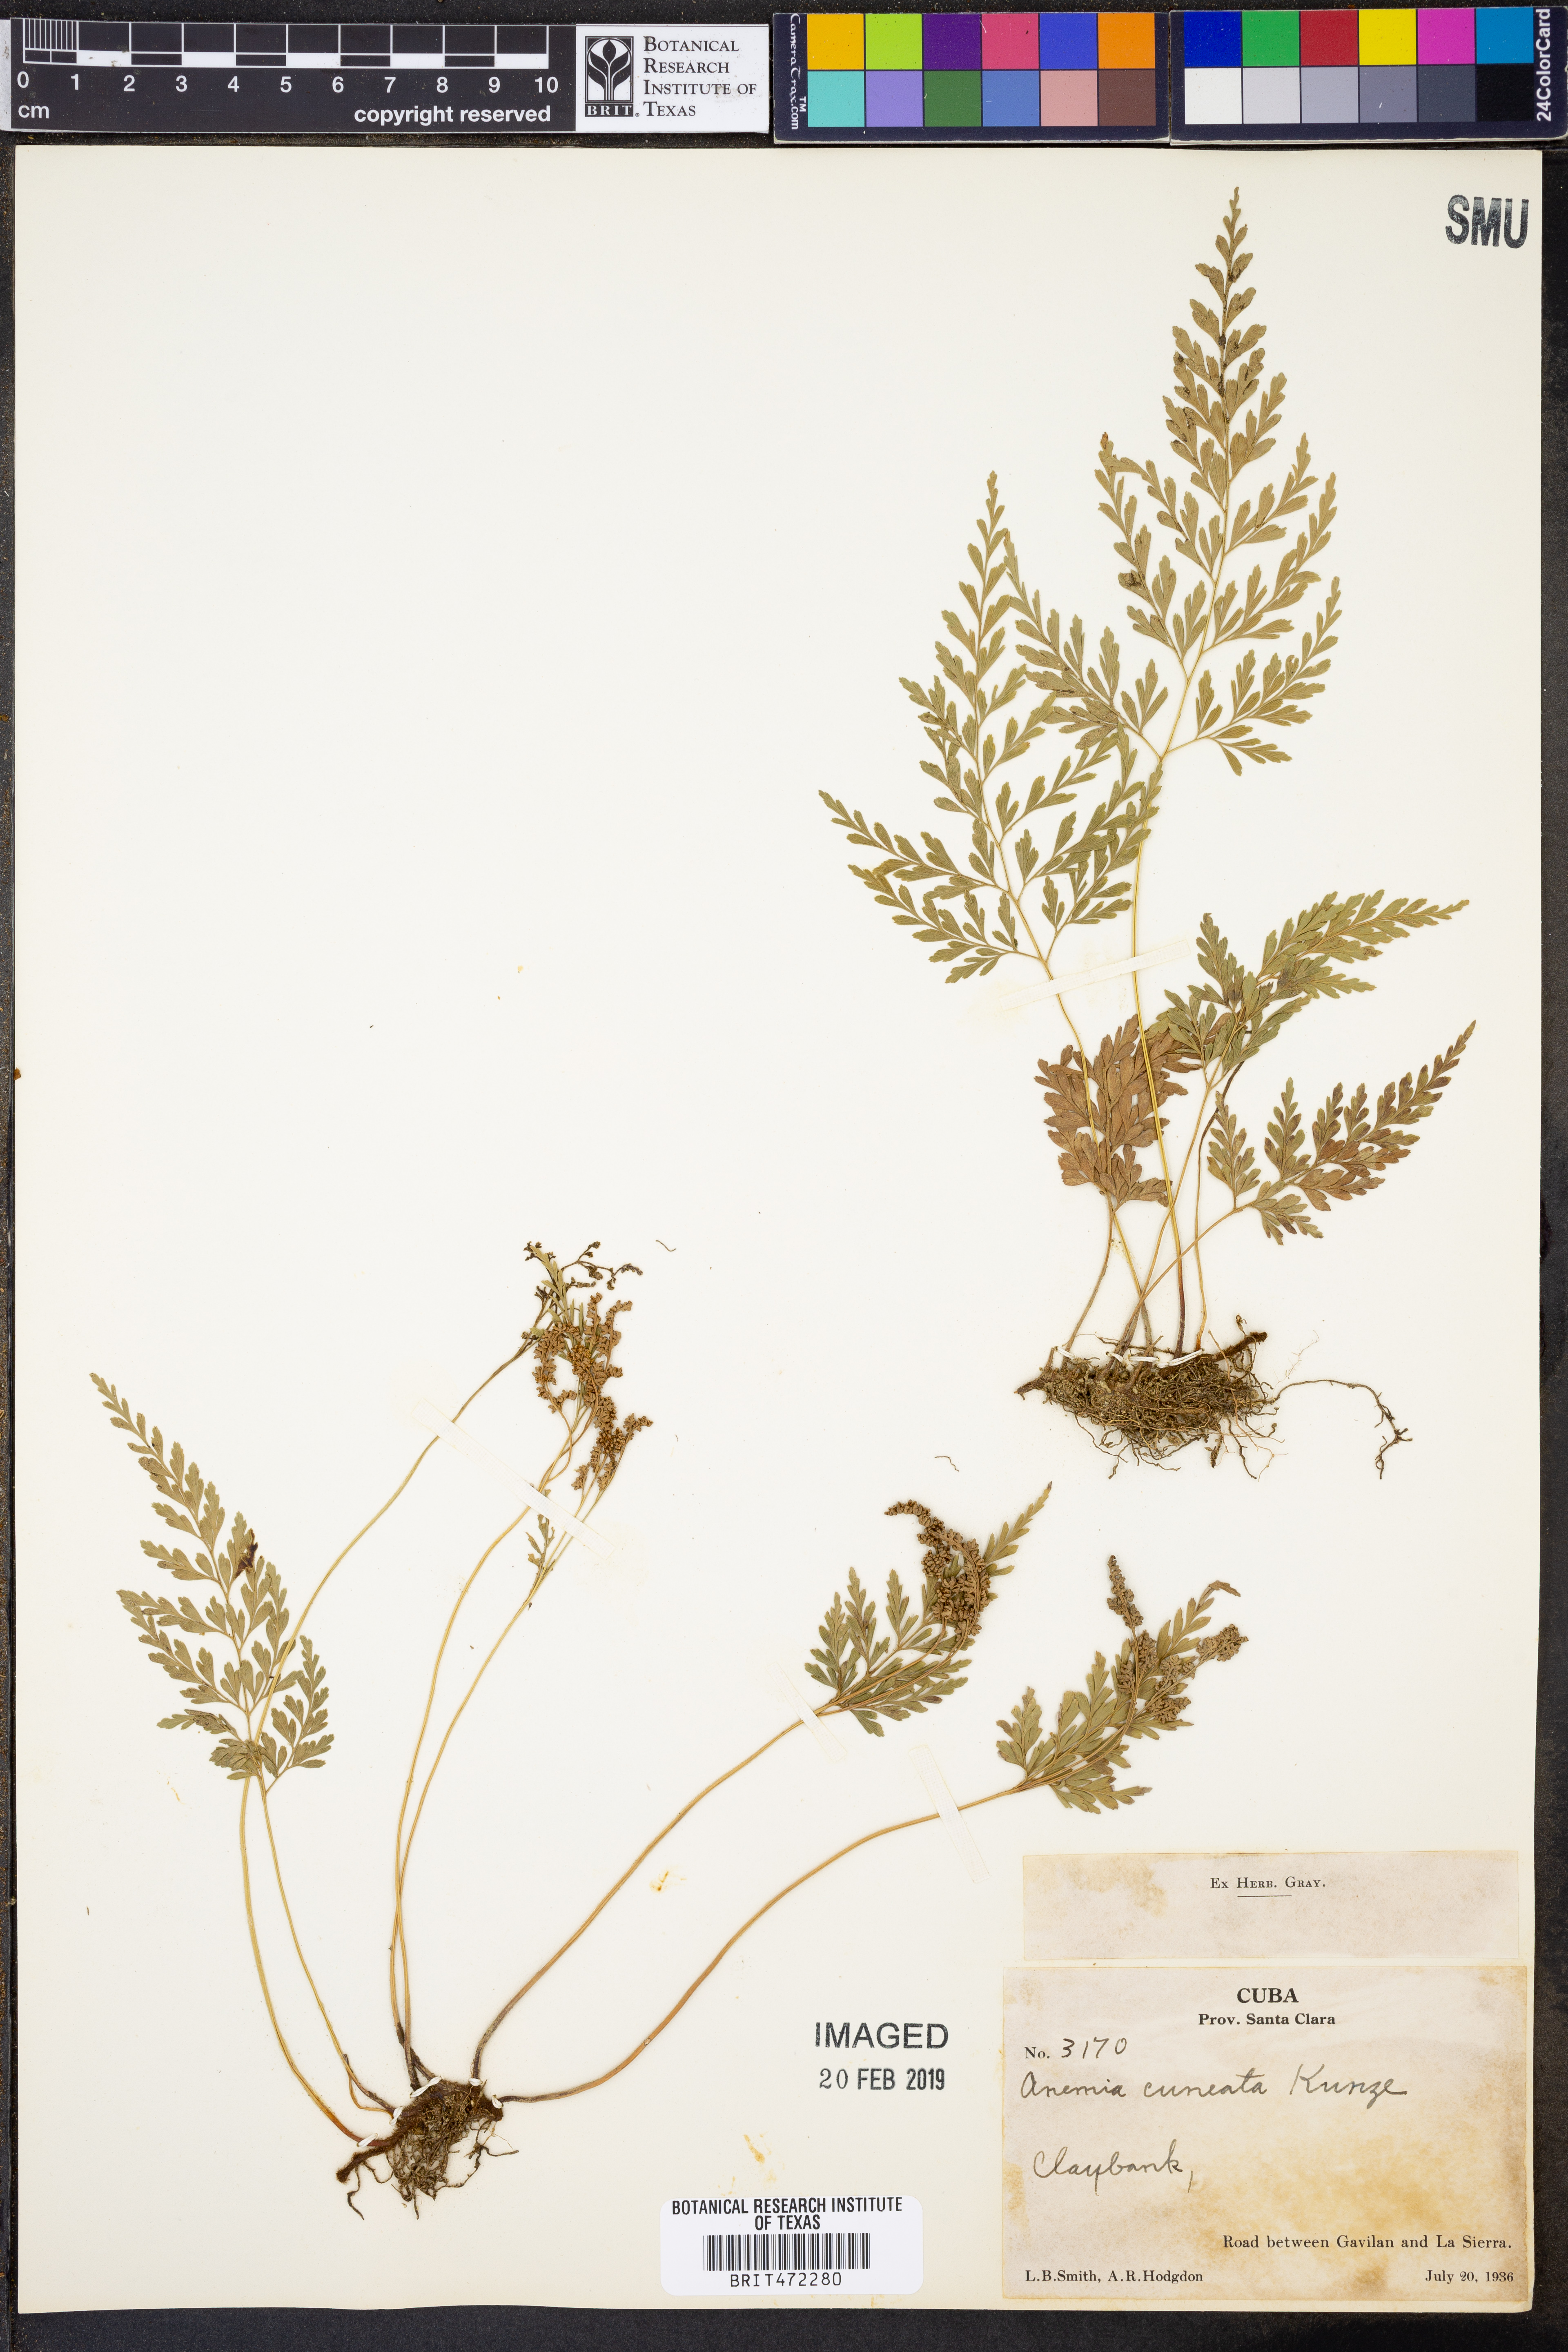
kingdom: Plantae
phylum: Tracheophyta
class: Polypodiopsida
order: Schizaeales
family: Anemiaceae
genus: Anemia
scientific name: Anemia cuneata
